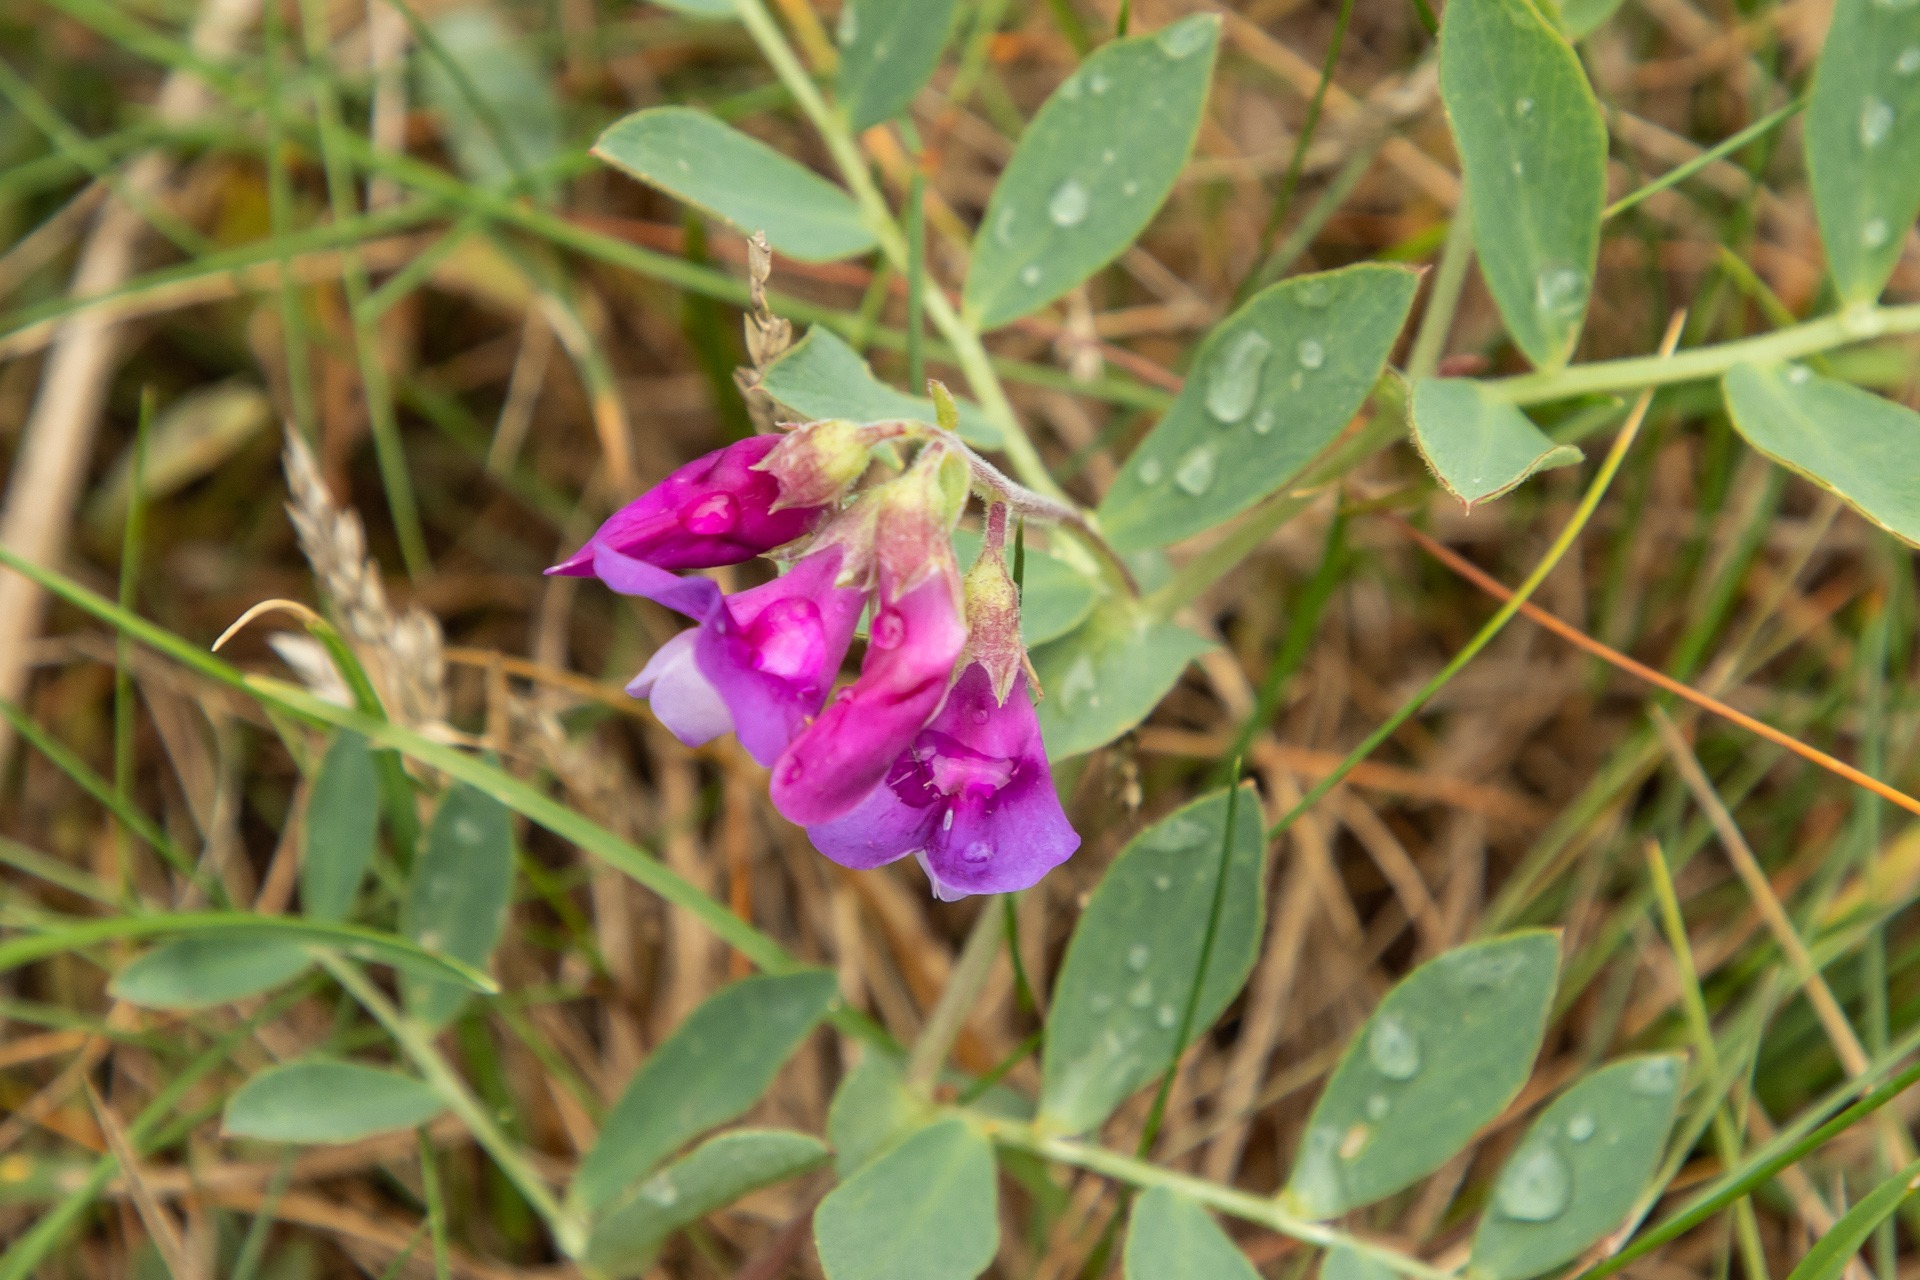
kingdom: Plantae
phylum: Tracheophyta
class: Magnoliopsida
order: Fabales
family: Fabaceae
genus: Lathyrus
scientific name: Lathyrus japonicus
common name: Strand-fladbælg
